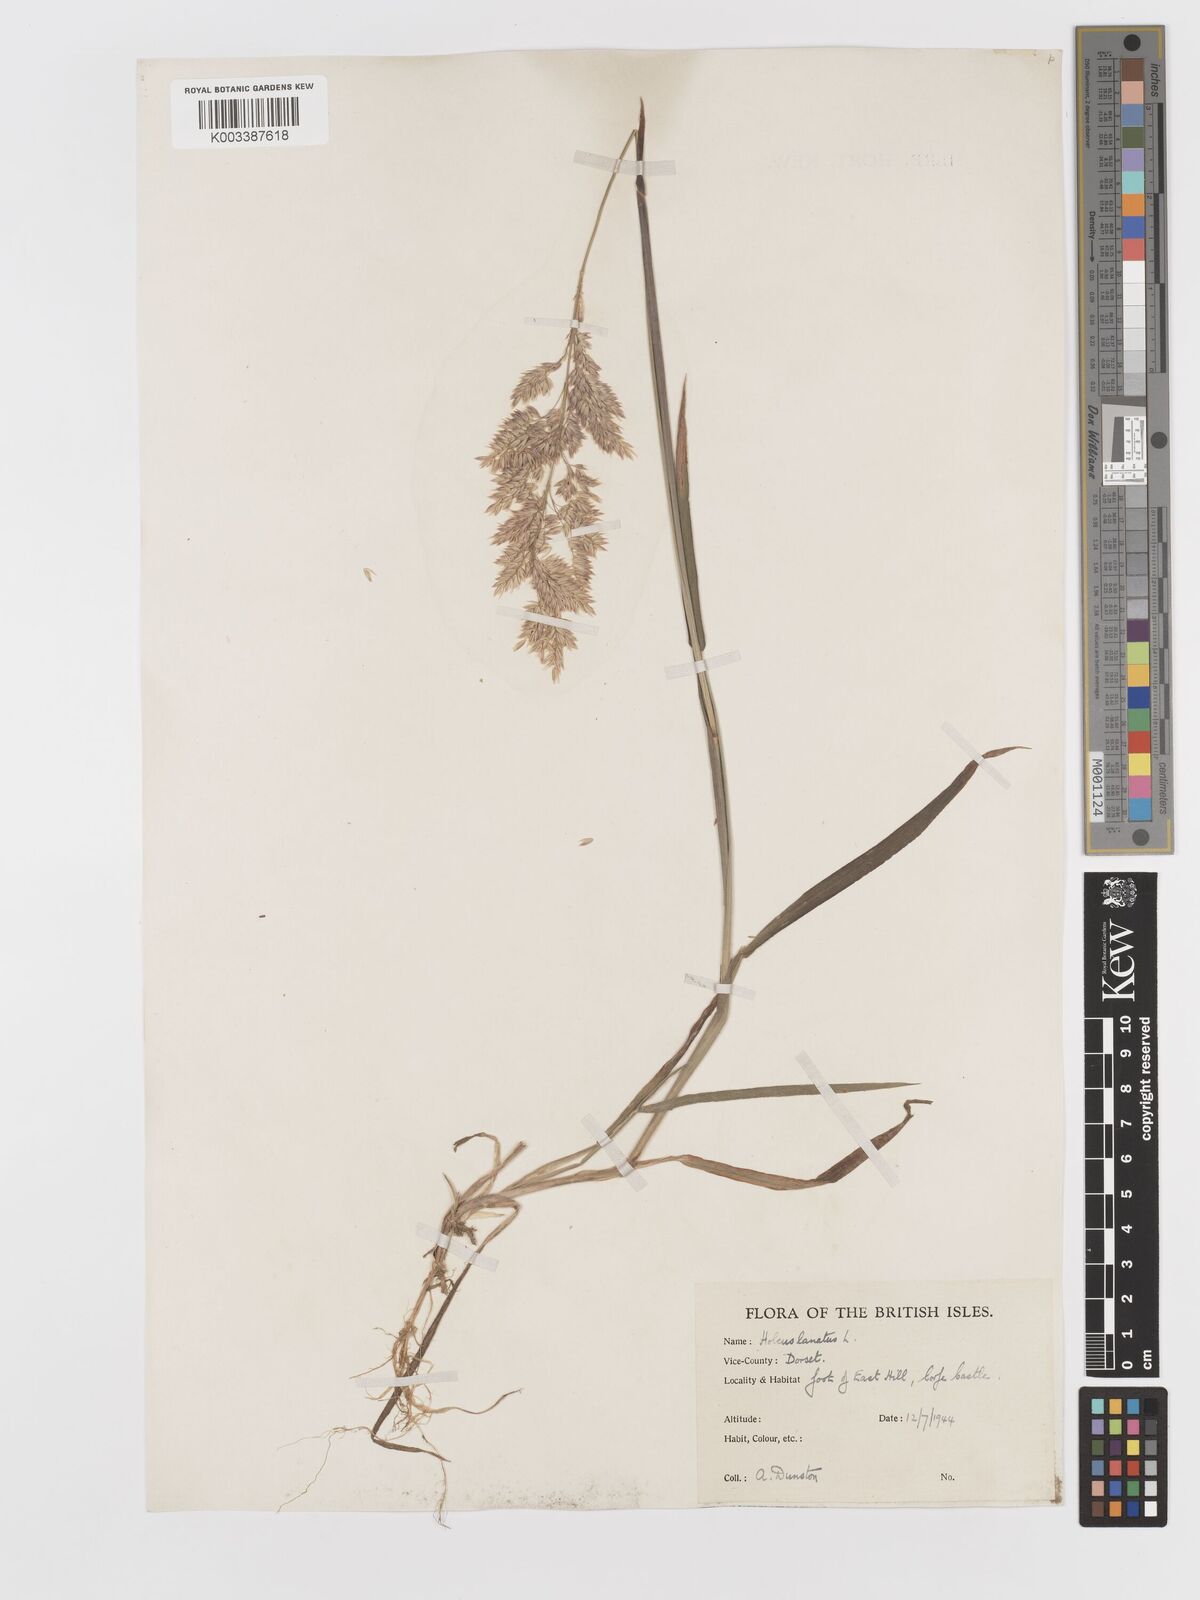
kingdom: Plantae
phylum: Tracheophyta
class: Liliopsida
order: Poales
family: Poaceae
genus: Holcus
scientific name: Holcus lanatus
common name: Yorkshire-fog
